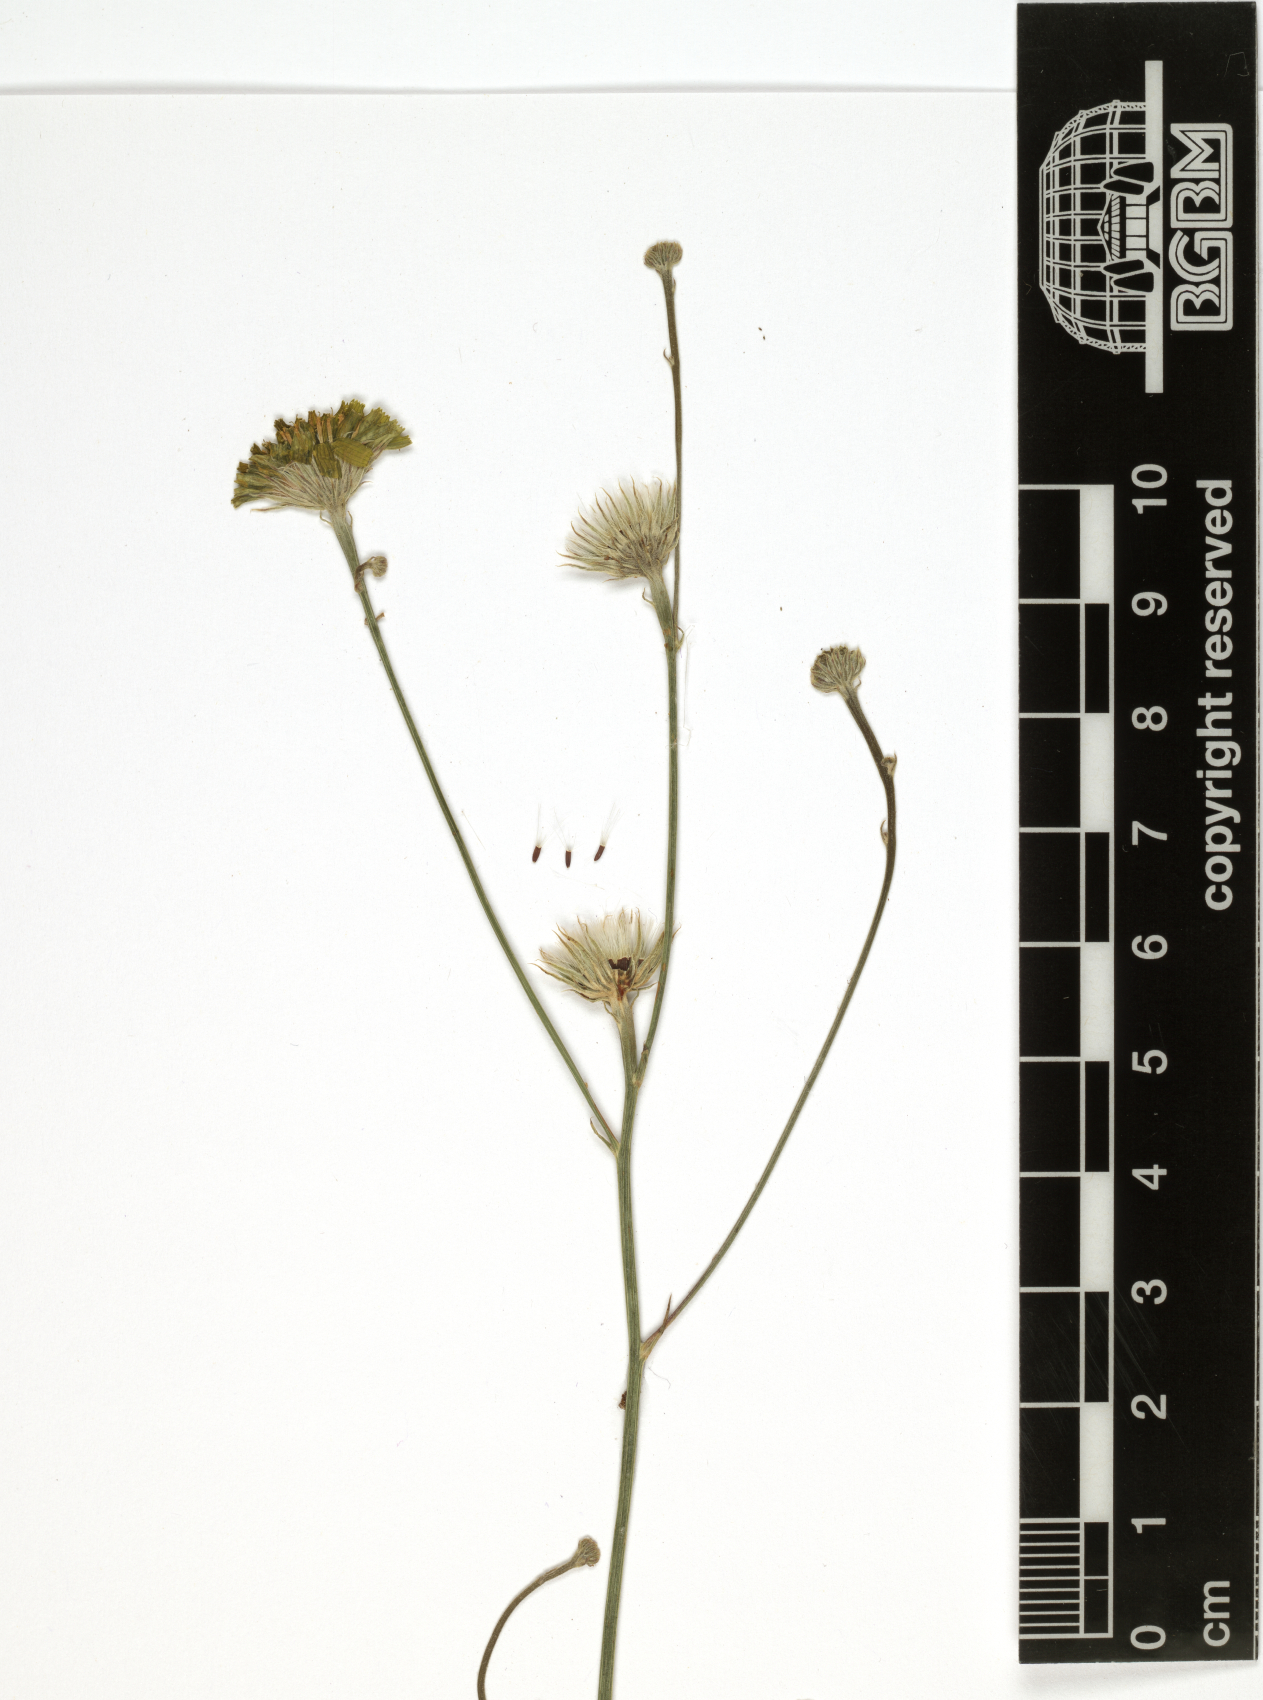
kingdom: Plantae
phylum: Tracheophyta
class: Magnoliopsida
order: Asterales
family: Asteraceae
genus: Tolpis
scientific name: Tolpis virgata
